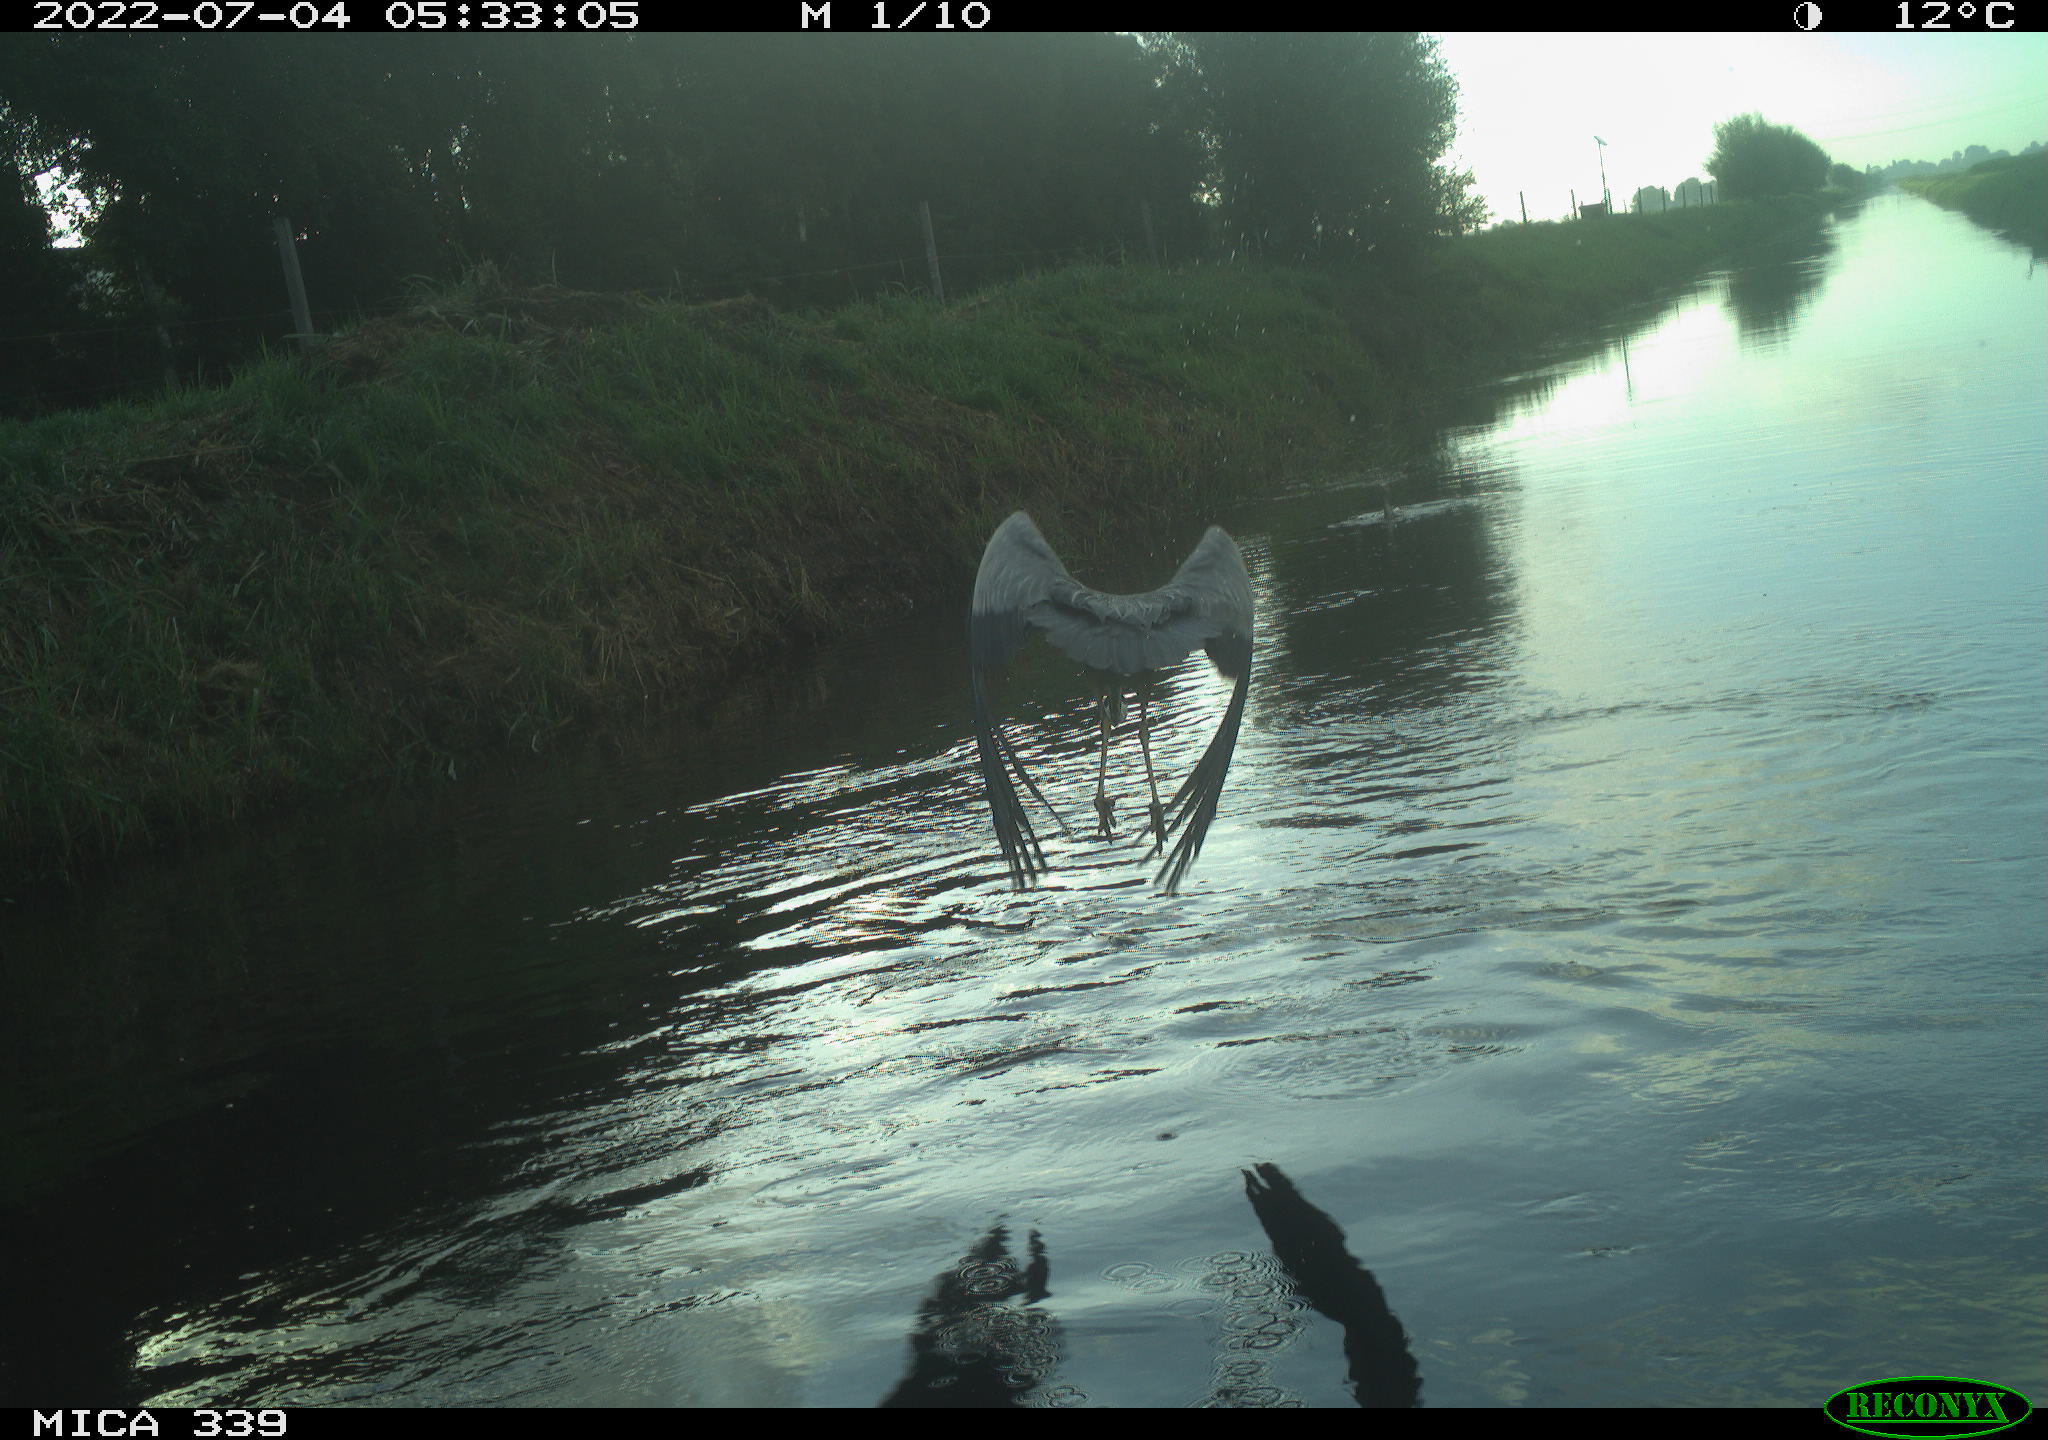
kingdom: Animalia
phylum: Chordata
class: Aves
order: Suliformes
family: Phalacrocoracidae
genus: Phalacrocorax
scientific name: Phalacrocorax carbo
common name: Great cormorant
